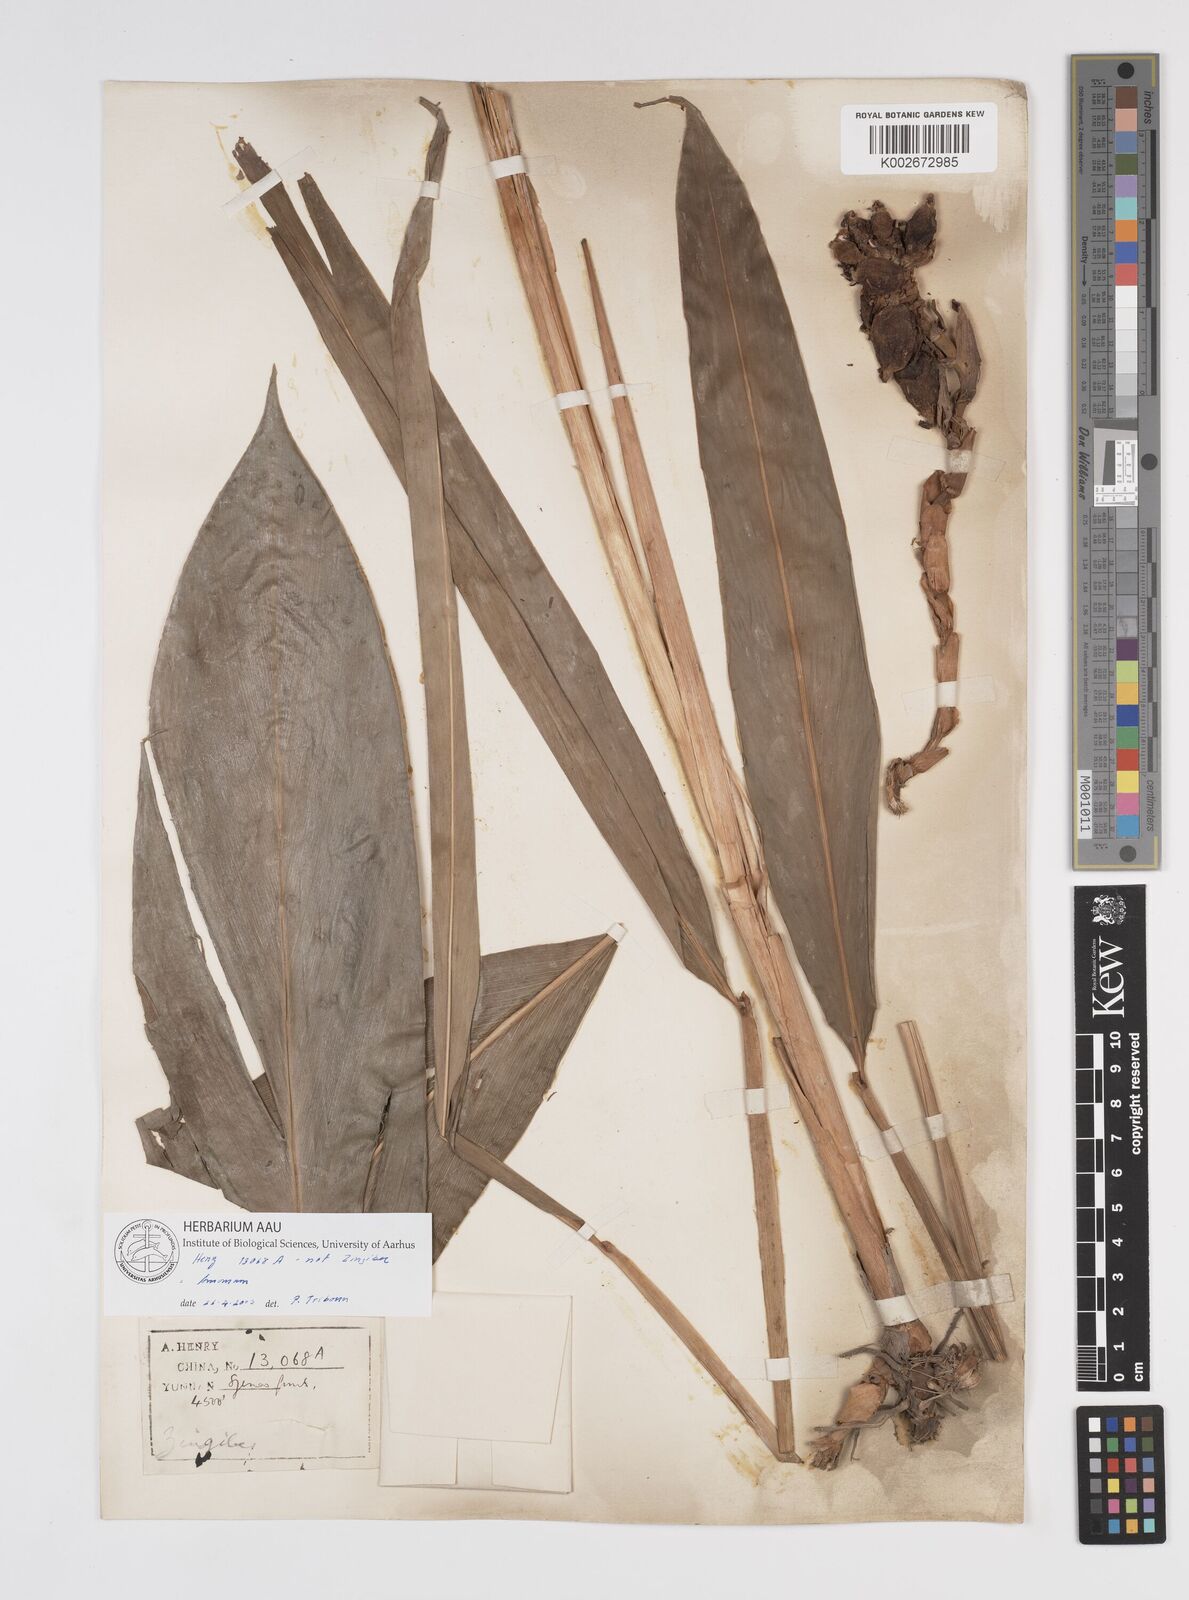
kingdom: Plantae
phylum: Tracheophyta
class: Liliopsida
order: Zingiberales
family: Zingiberaceae
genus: Amomum
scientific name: Amomum
